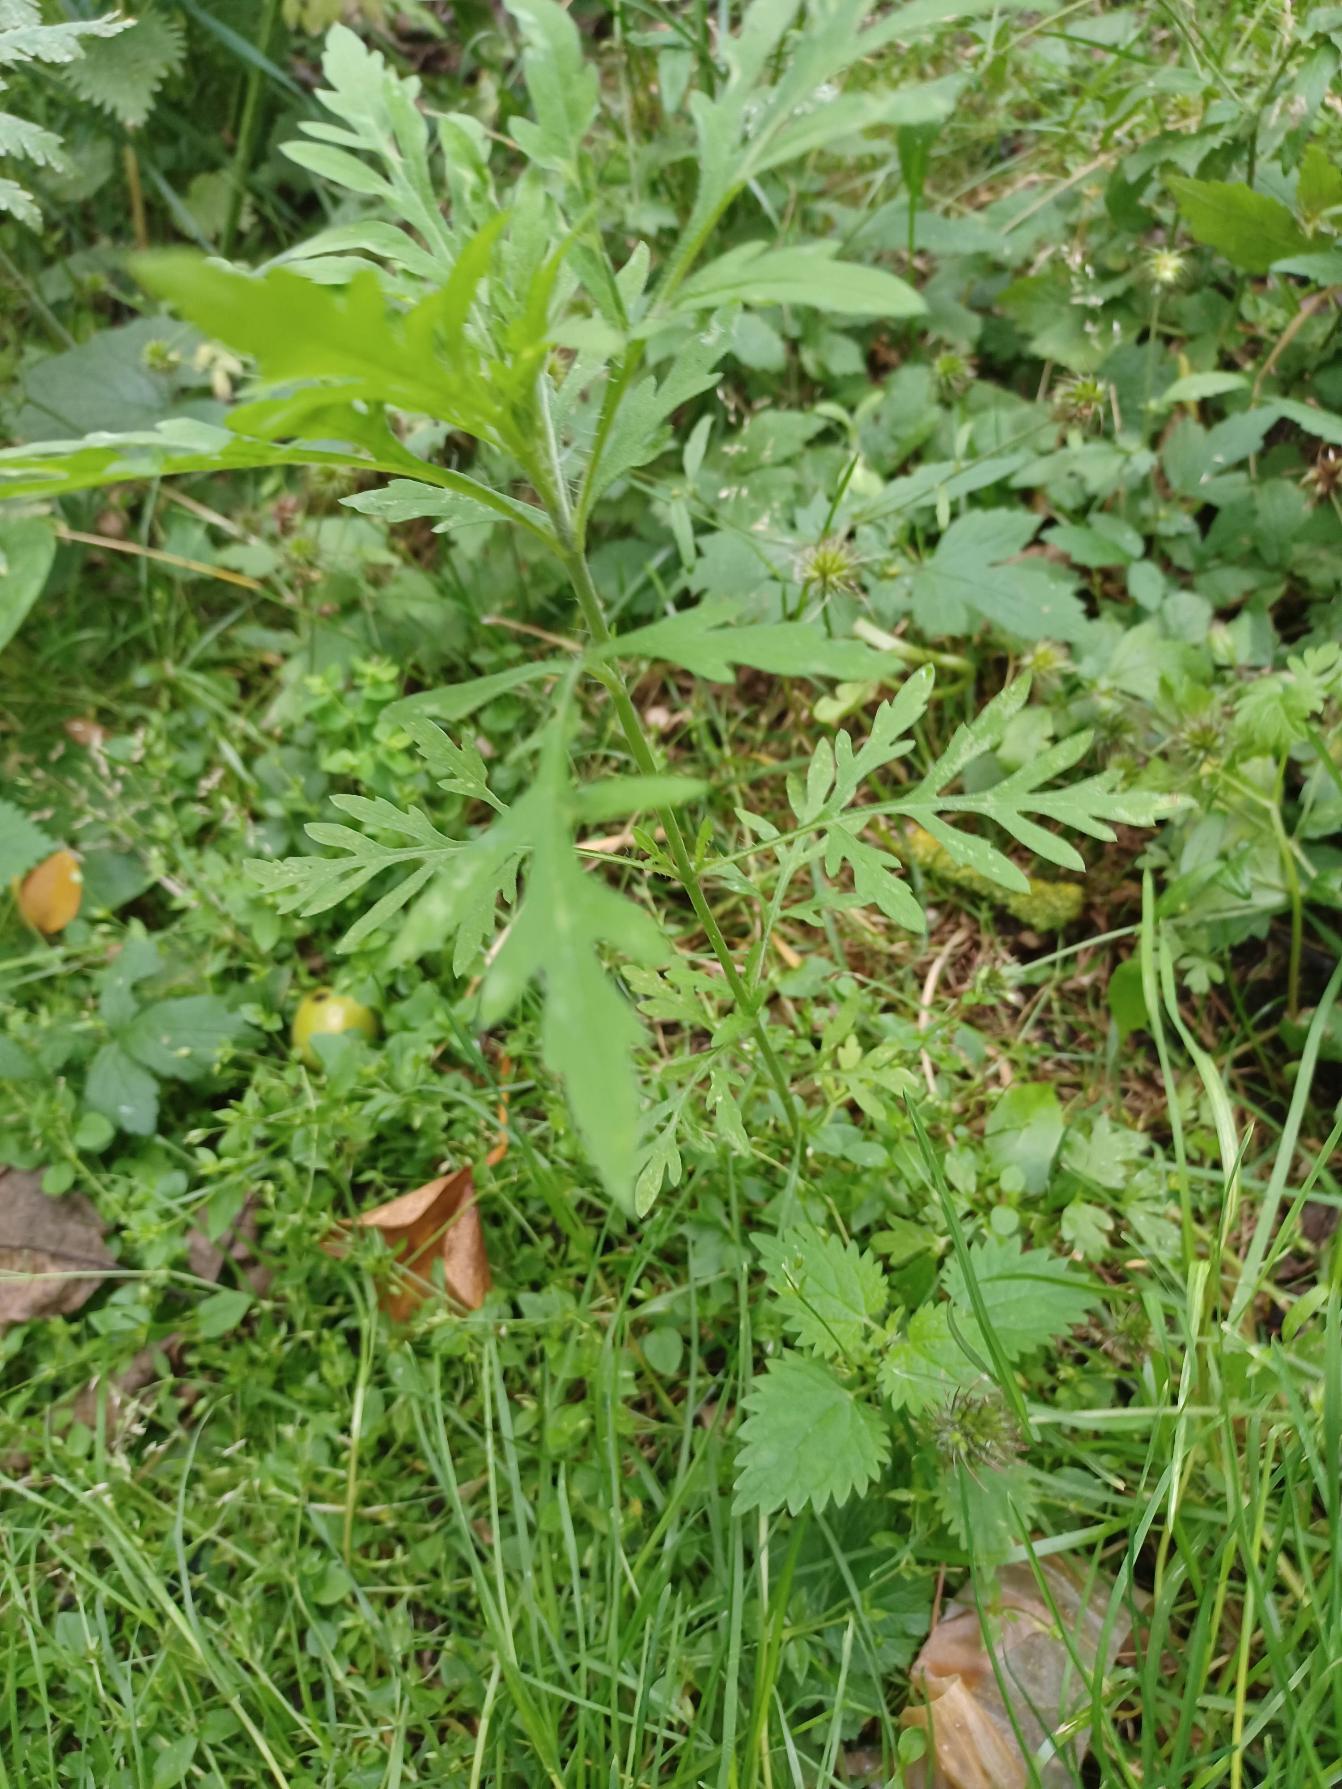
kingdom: Plantae
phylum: Tracheophyta
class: Magnoliopsida
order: Asterales
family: Asteraceae
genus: Ambrosia
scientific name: Ambrosia artemisiifolia
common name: Bynke-ambrosie
